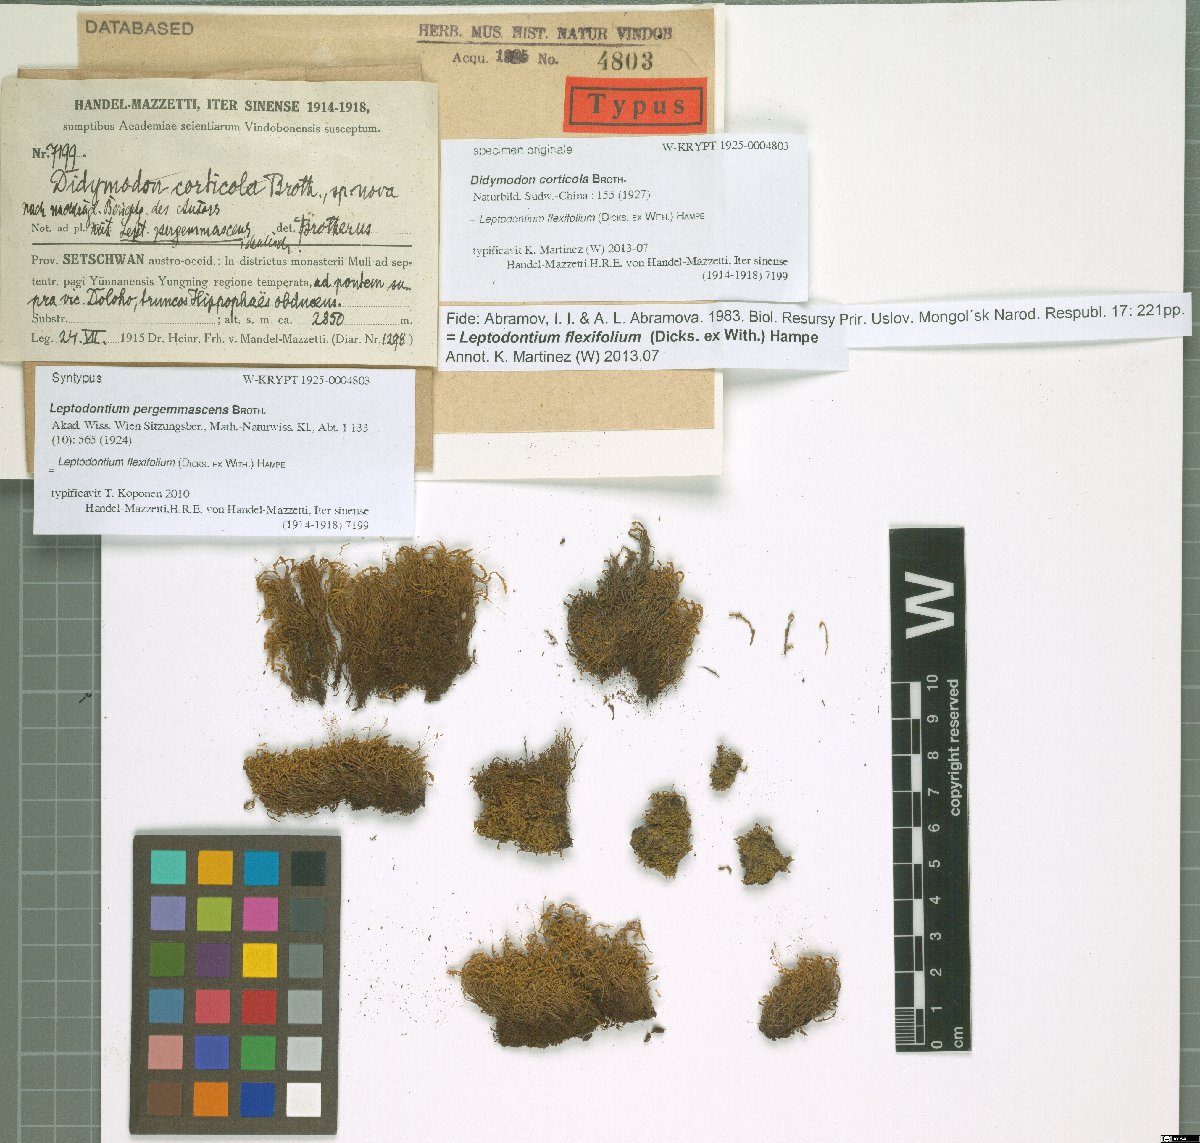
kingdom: Plantae
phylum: Bryophyta
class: Bryopsida
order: Pottiales
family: Pottiaceae
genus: Didymodon
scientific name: Didymodon
